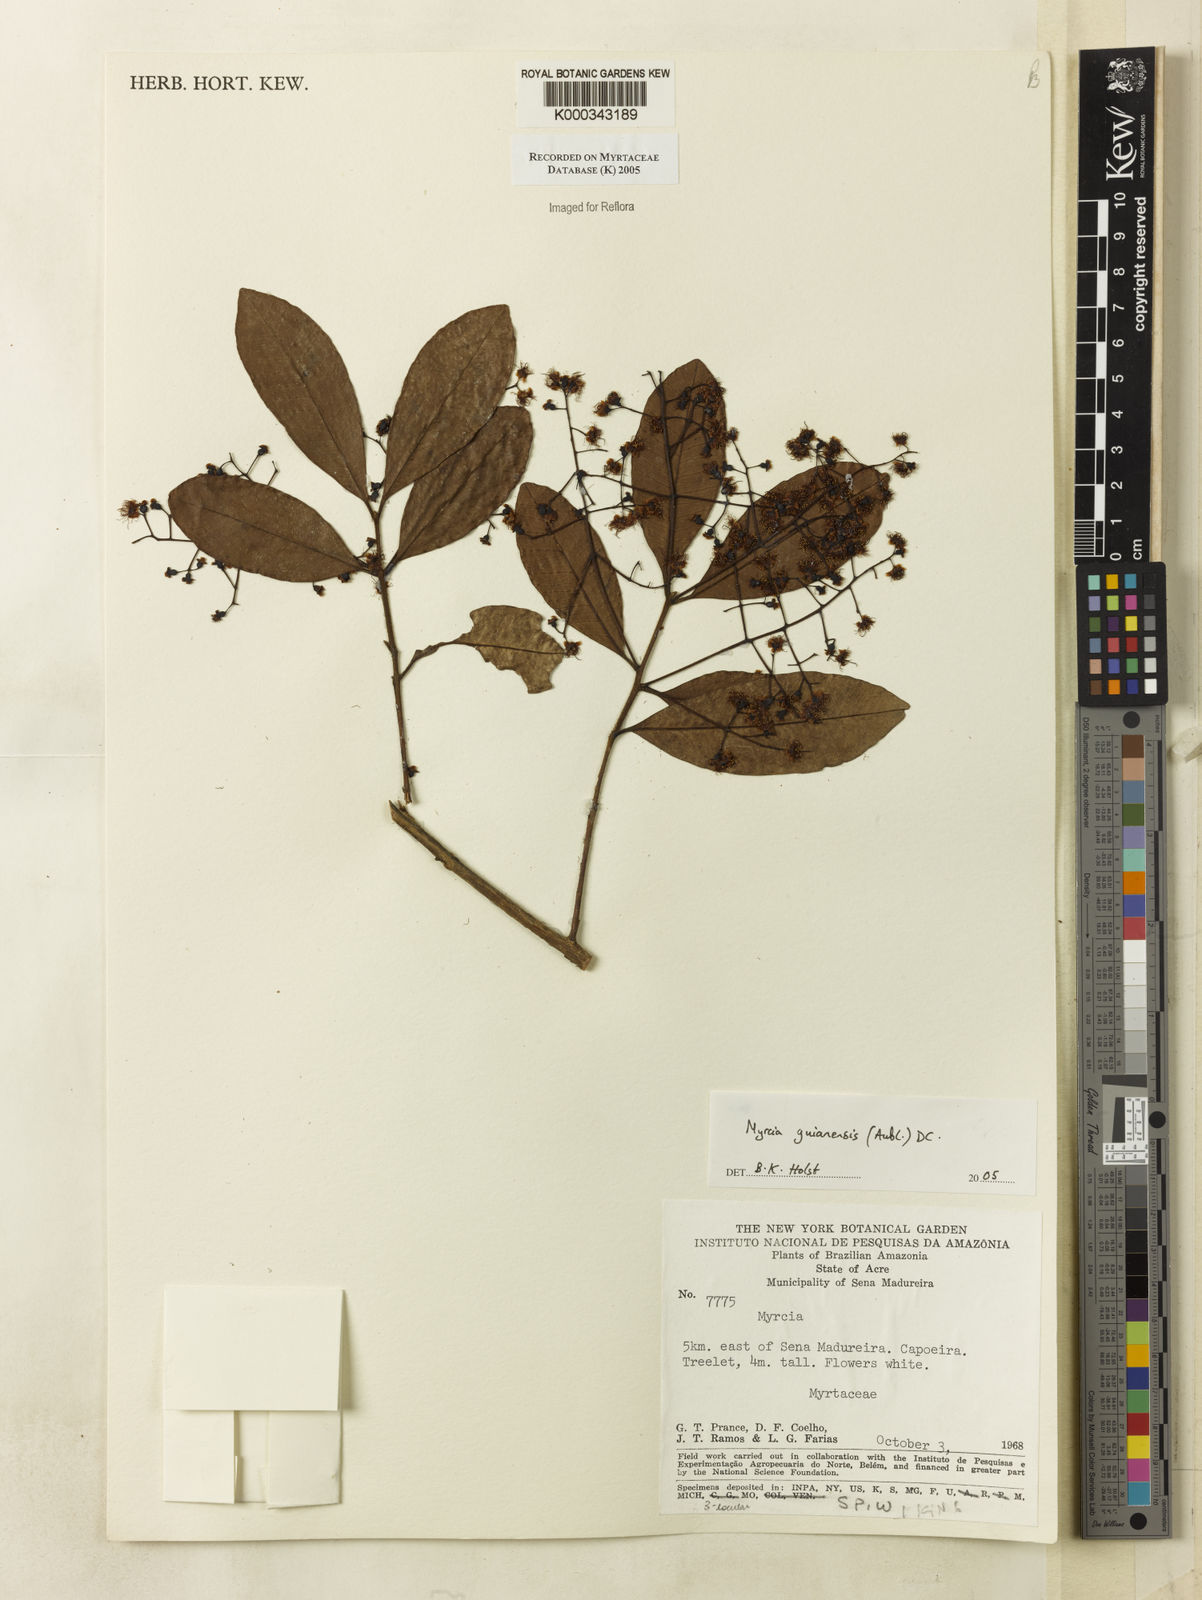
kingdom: Plantae
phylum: Tracheophyta
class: Magnoliopsida
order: Myrtales
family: Myrtaceae
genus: Myrcia
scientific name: Myrcia guianensis
